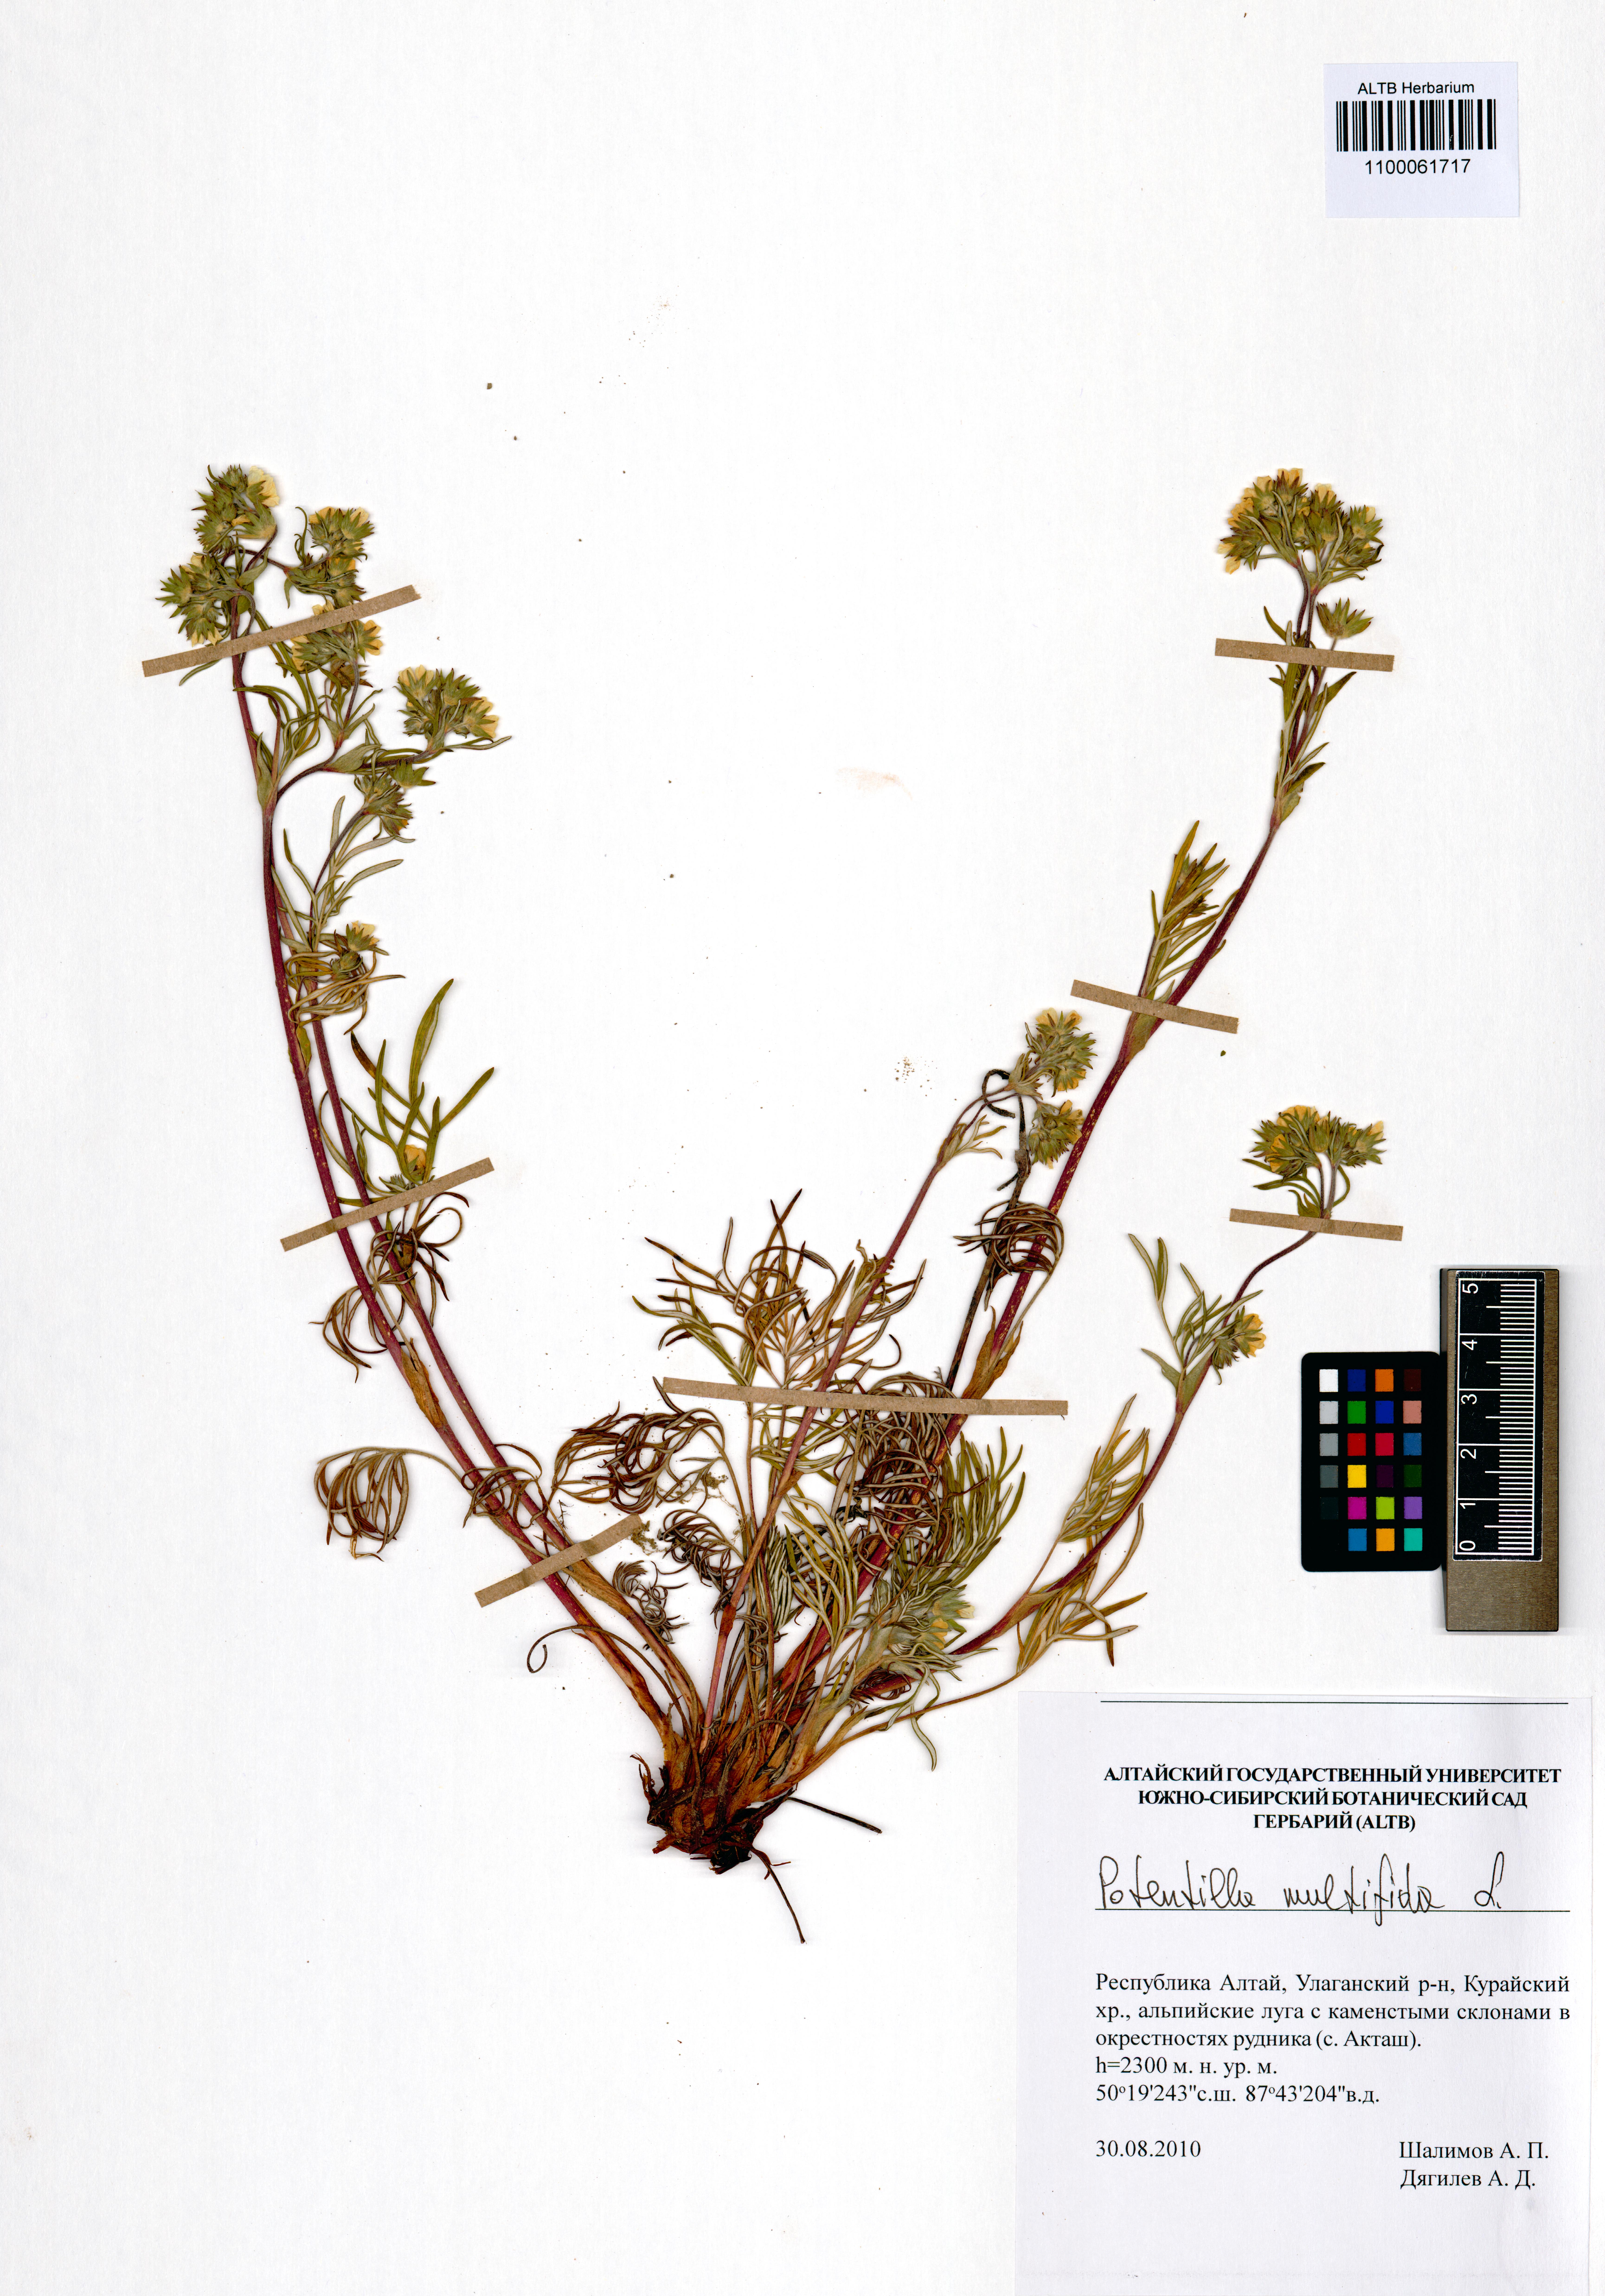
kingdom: Plantae
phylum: Tracheophyta
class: Magnoliopsida
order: Rosales
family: Rosaceae
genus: Potentilla
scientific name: Potentilla multifida
